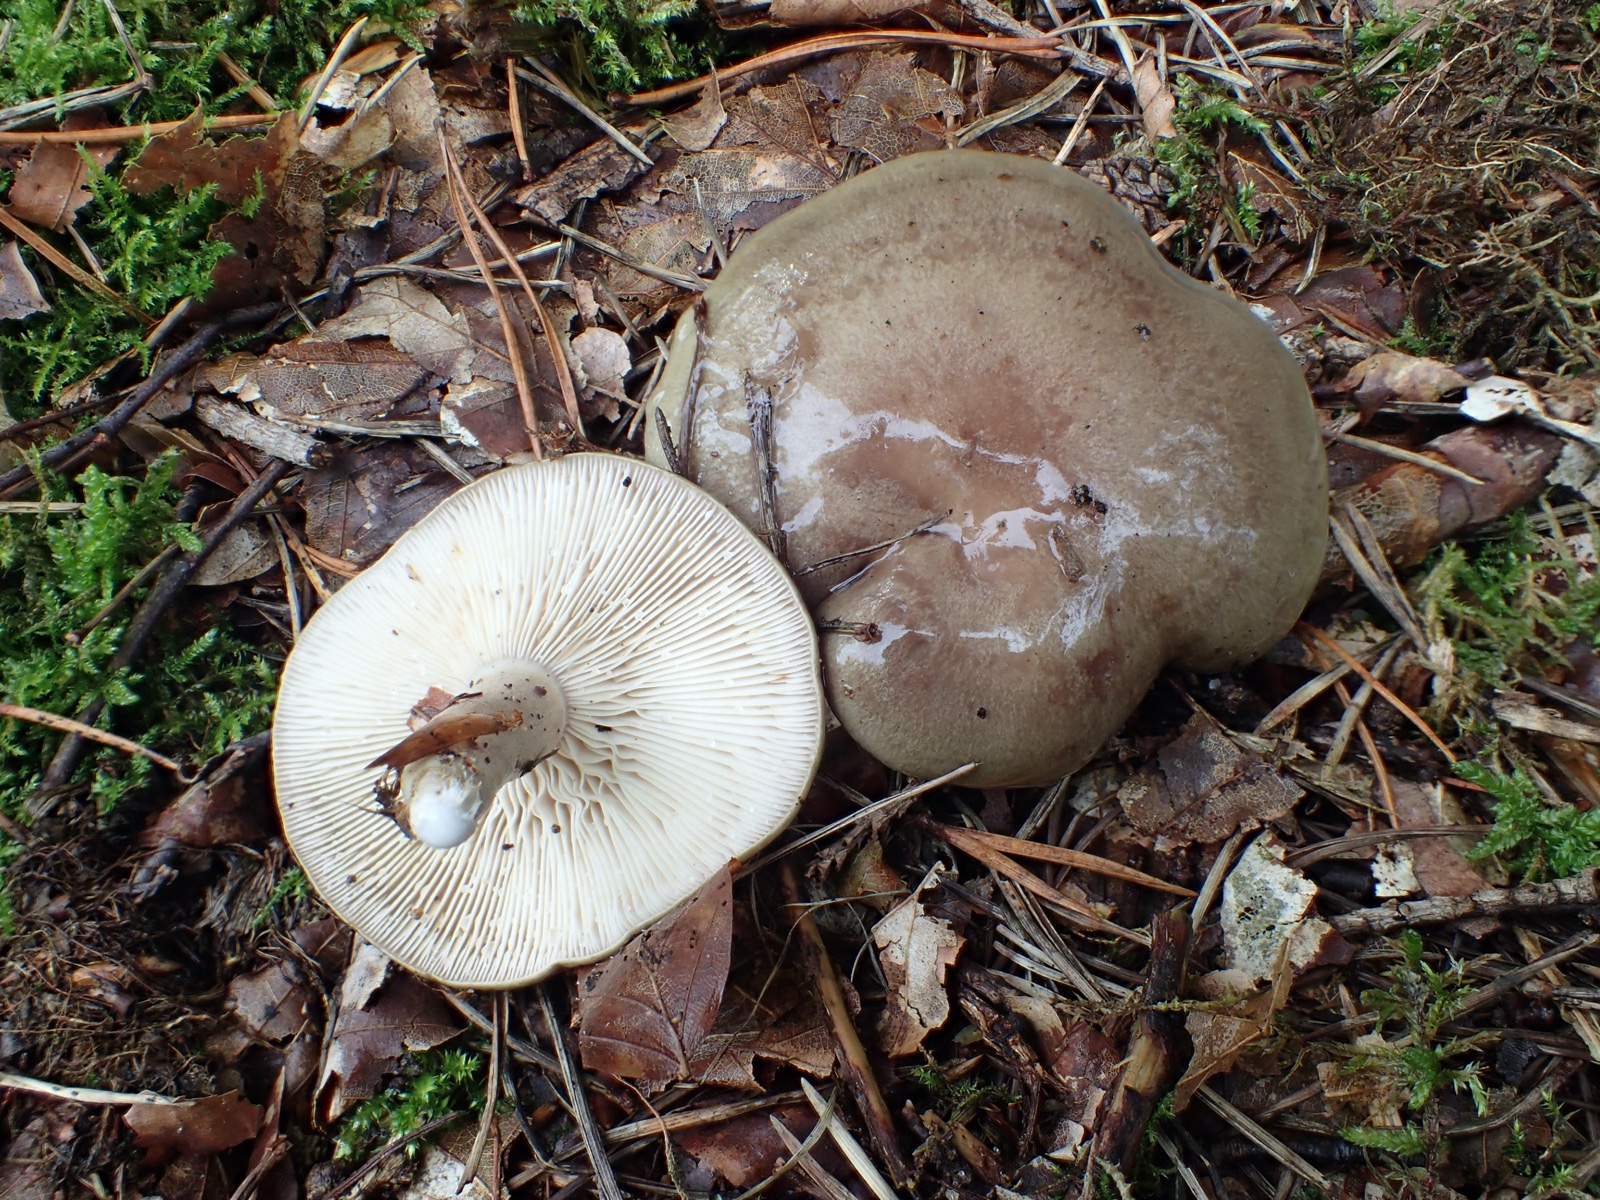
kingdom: Fungi
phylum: Basidiomycota
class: Agaricomycetes
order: Russulales
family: Russulaceae
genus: Lactarius
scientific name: Lactarius blennius
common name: dråbeplettet mælkehat
